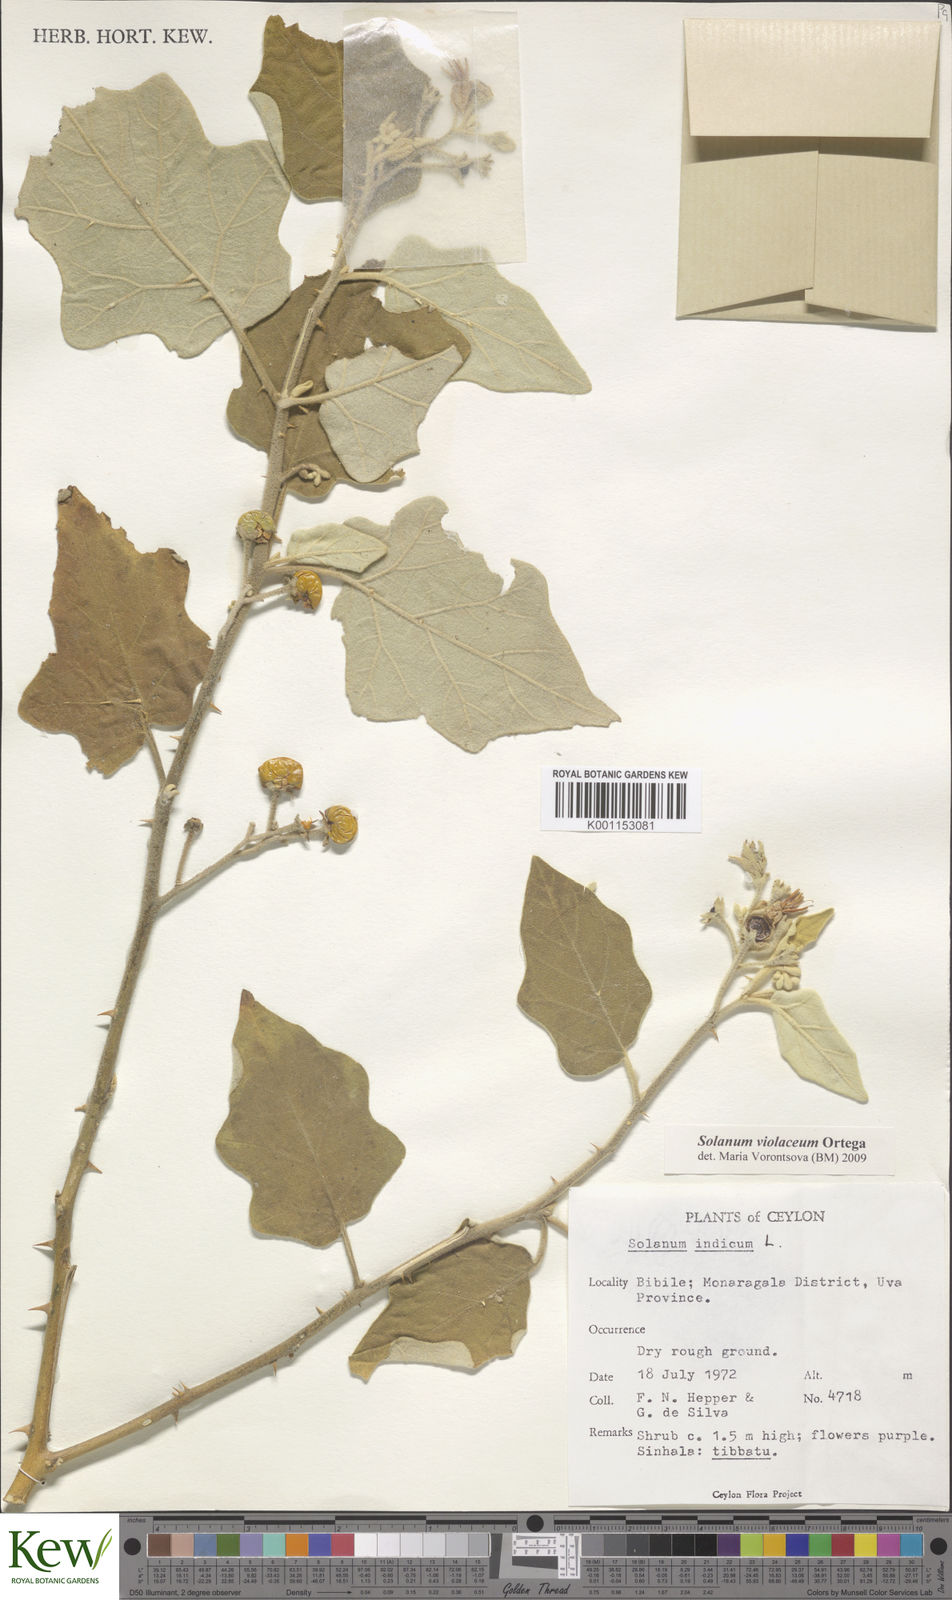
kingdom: Plantae
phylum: Tracheophyta
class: Magnoliopsida
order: Solanales
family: Solanaceae
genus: Solanum
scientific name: Solanum violaceum
